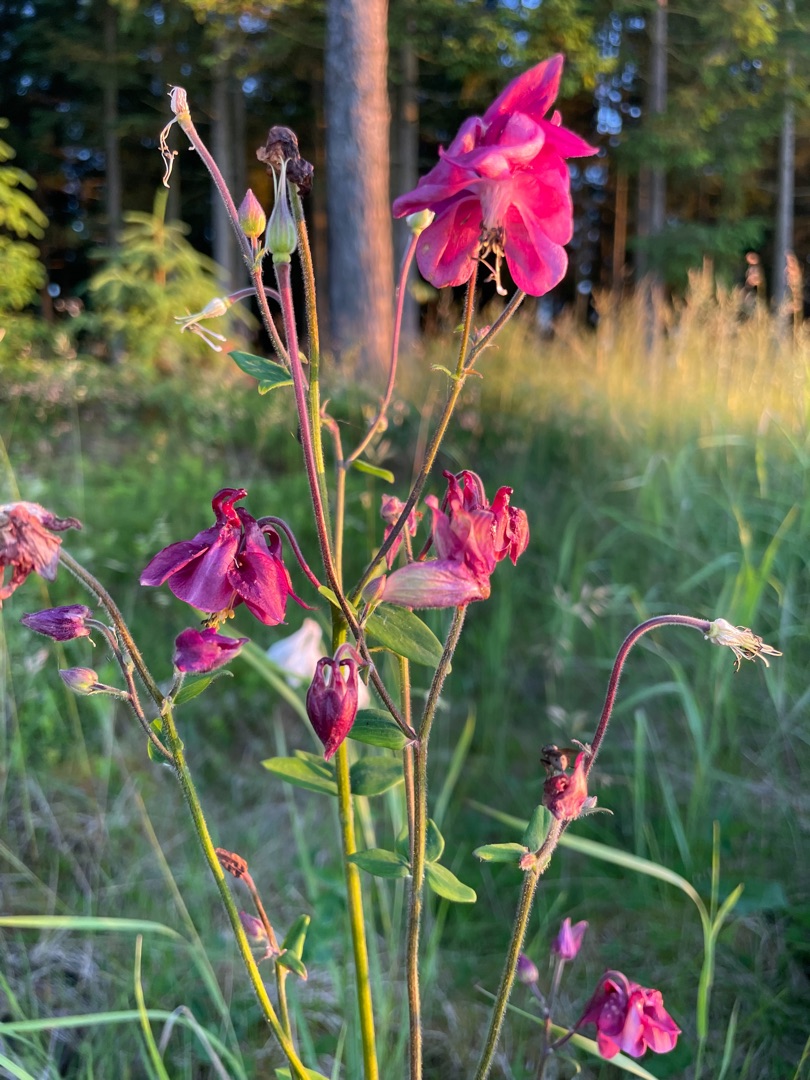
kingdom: Plantae
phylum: Tracheophyta
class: Magnoliopsida
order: Ranunculales
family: Ranunculaceae
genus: Aquilegia
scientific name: Aquilegia vulgaris
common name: Akeleje
